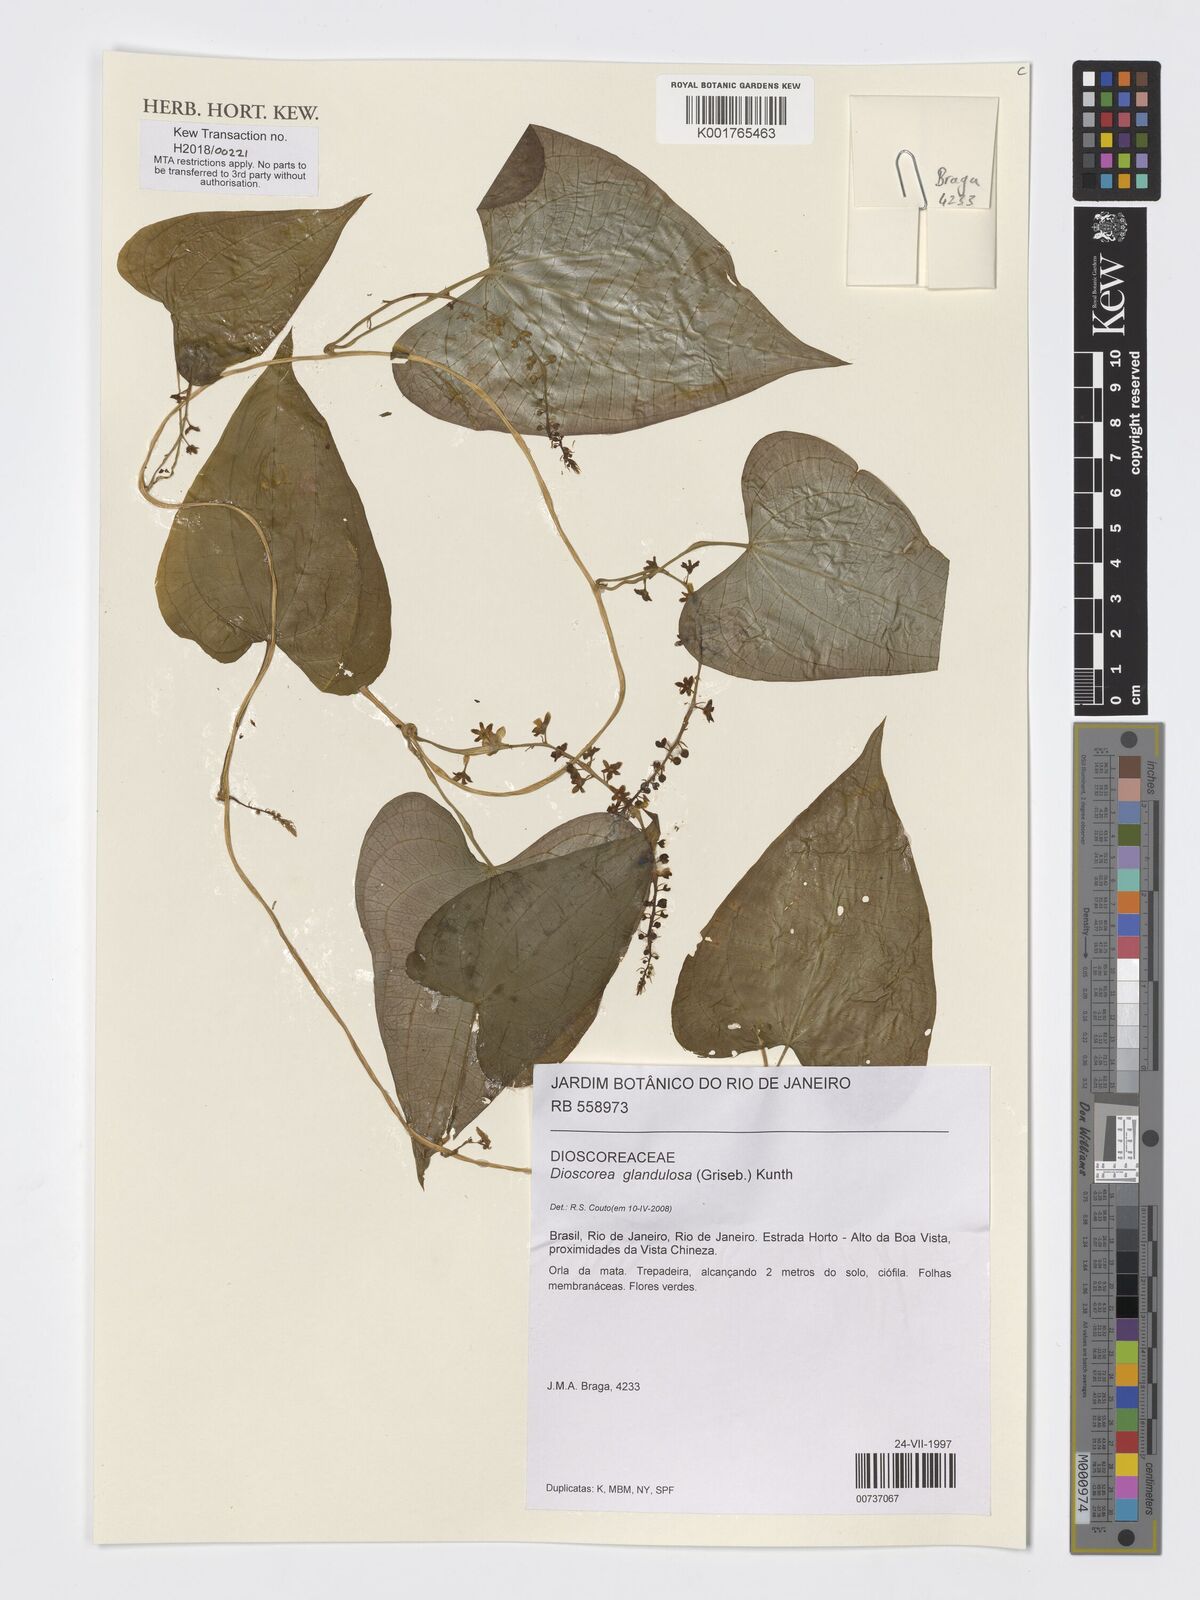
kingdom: Plantae
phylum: Tracheophyta
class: Liliopsida
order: Dioscoreales
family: Dioscoreaceae
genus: Dioscorea
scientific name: Dioscorea glandulosa
